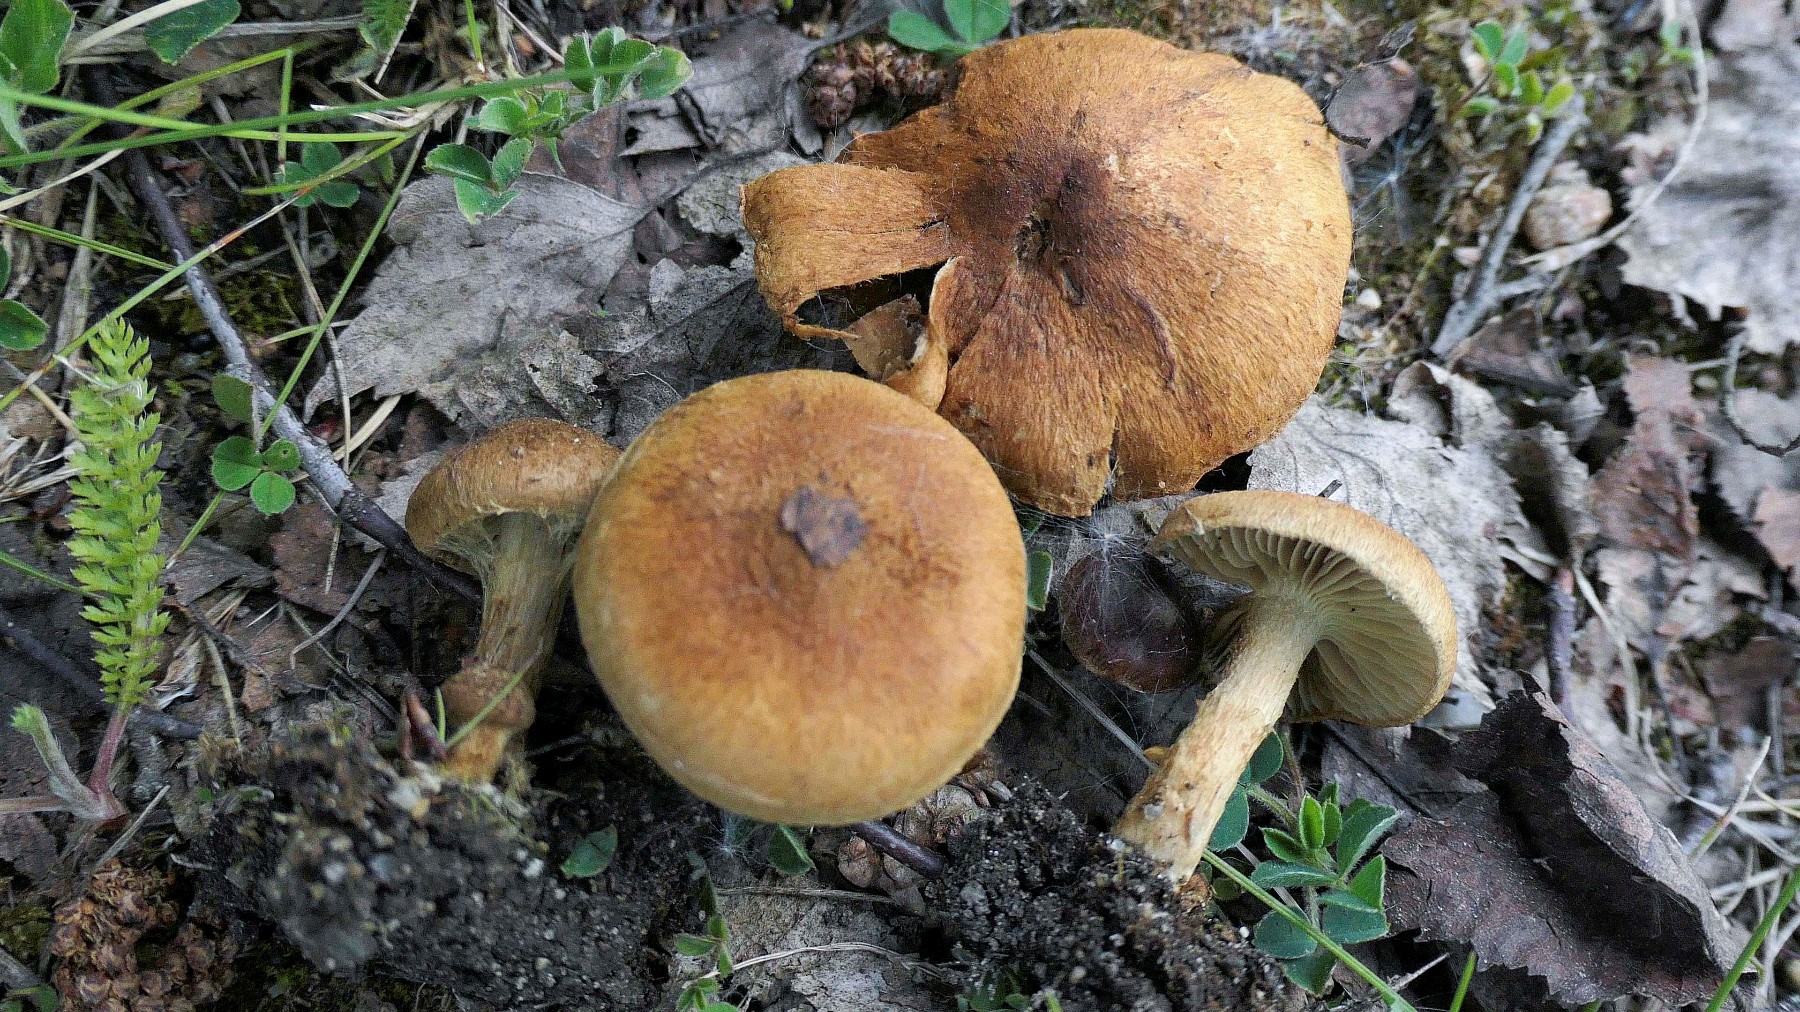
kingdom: Fungi
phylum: Basidiomycota
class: Agaricomycetes
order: Agaricales
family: Inocybaceae
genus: Inocybe
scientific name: Inocybe dulcamara
